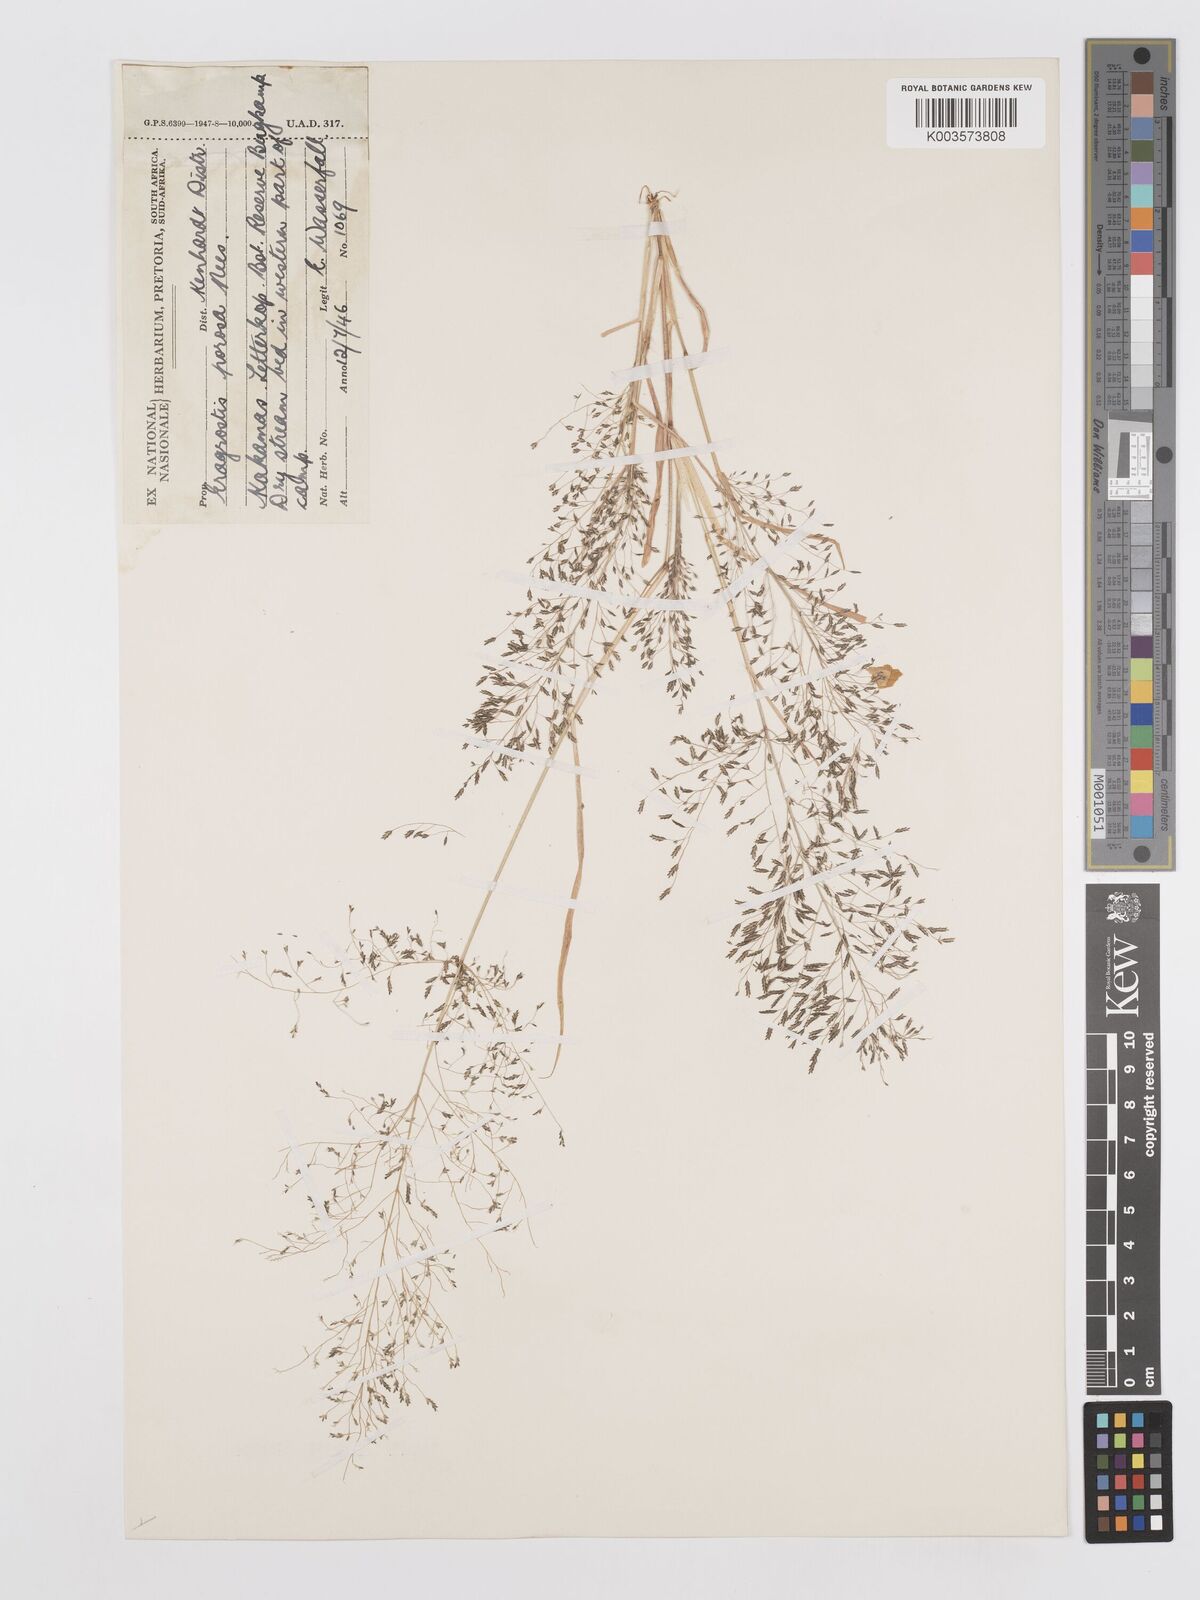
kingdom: Plantae
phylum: Tracheophyta
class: Liliopsida
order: Poales
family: Poaceae
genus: Eragrostis
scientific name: Eragrostis porosa
